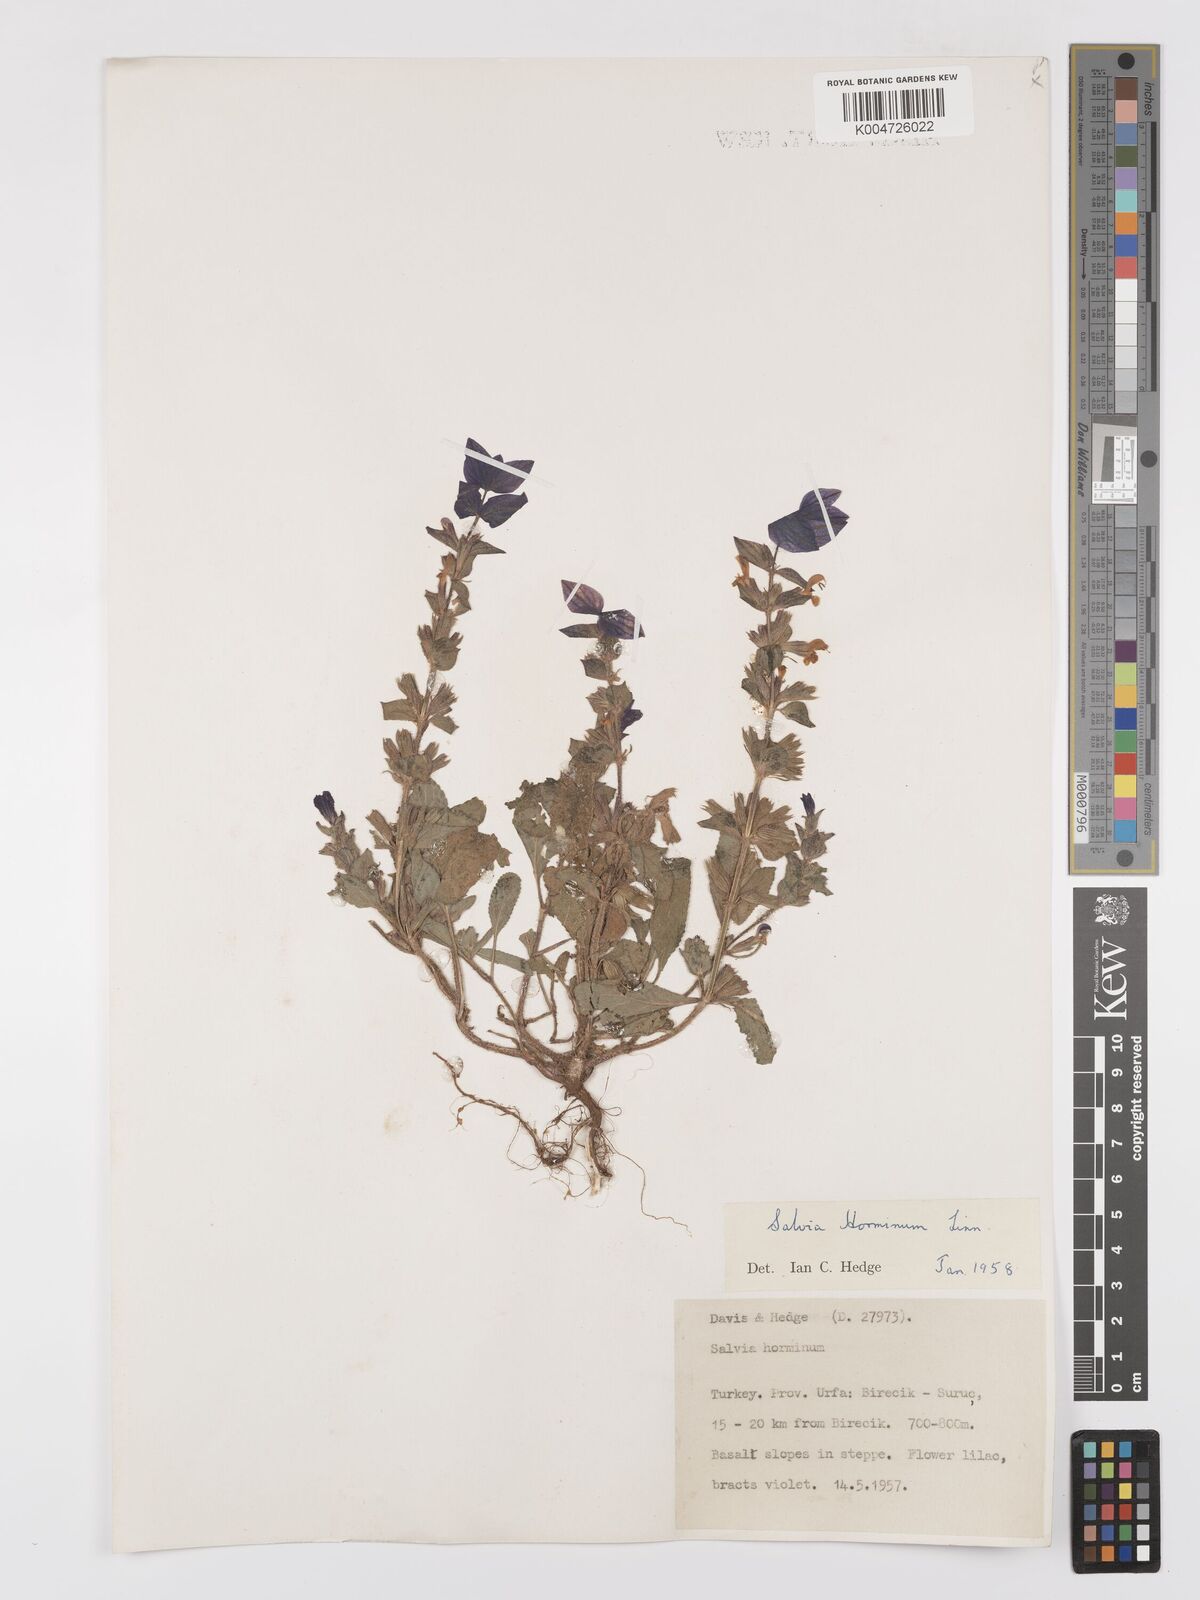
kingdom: Plantae
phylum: Tracheophyta
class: Magnoliopsida
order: Lamiales
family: Lamiaceae
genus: Salvia
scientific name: Salvia viridis
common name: Annual clary
